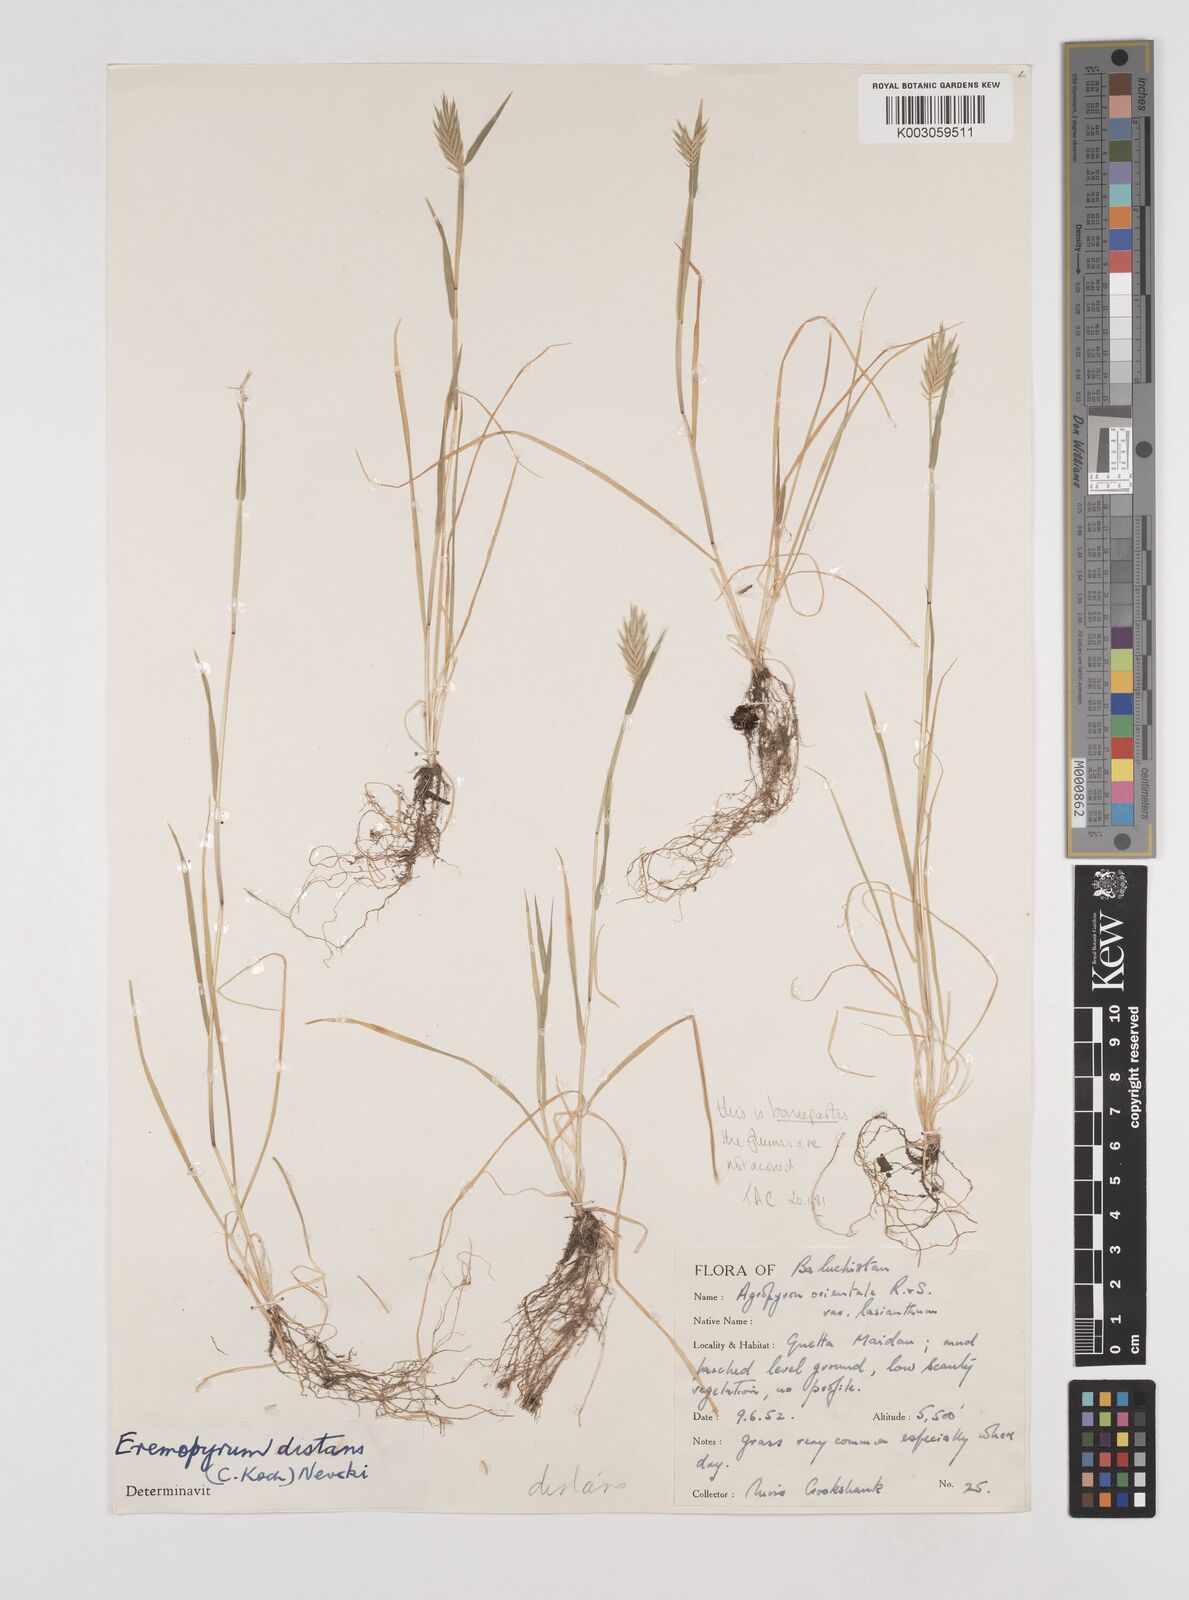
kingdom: Plantae
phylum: Tracheophyta
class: Liliopsida
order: Poales
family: Poaceae
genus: Eremopyrum
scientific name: Eremopyrum bonaepartis
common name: Tapertip false wheatgrass
